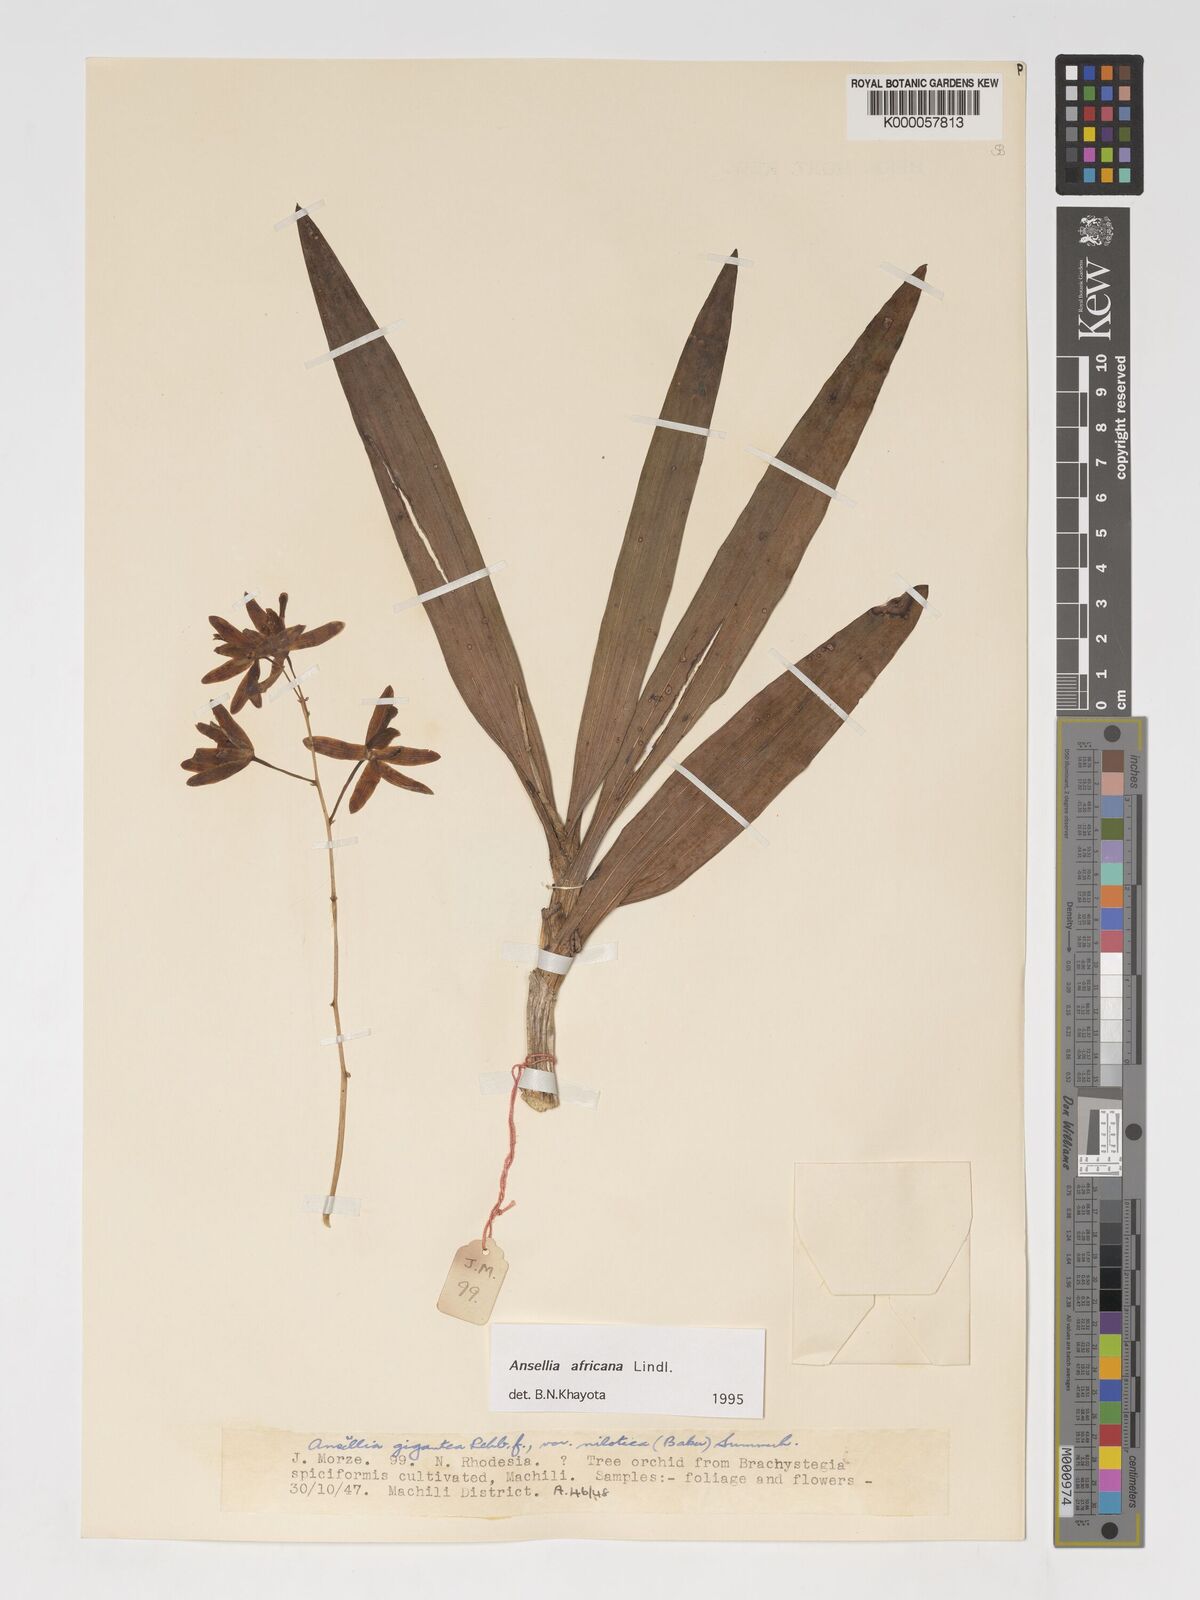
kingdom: Plantae
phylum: Tracheophyta
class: Liliopsida
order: Asparagales
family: Orchidaceae
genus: Ansellia
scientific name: Ansellia africana
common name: African ansellia
